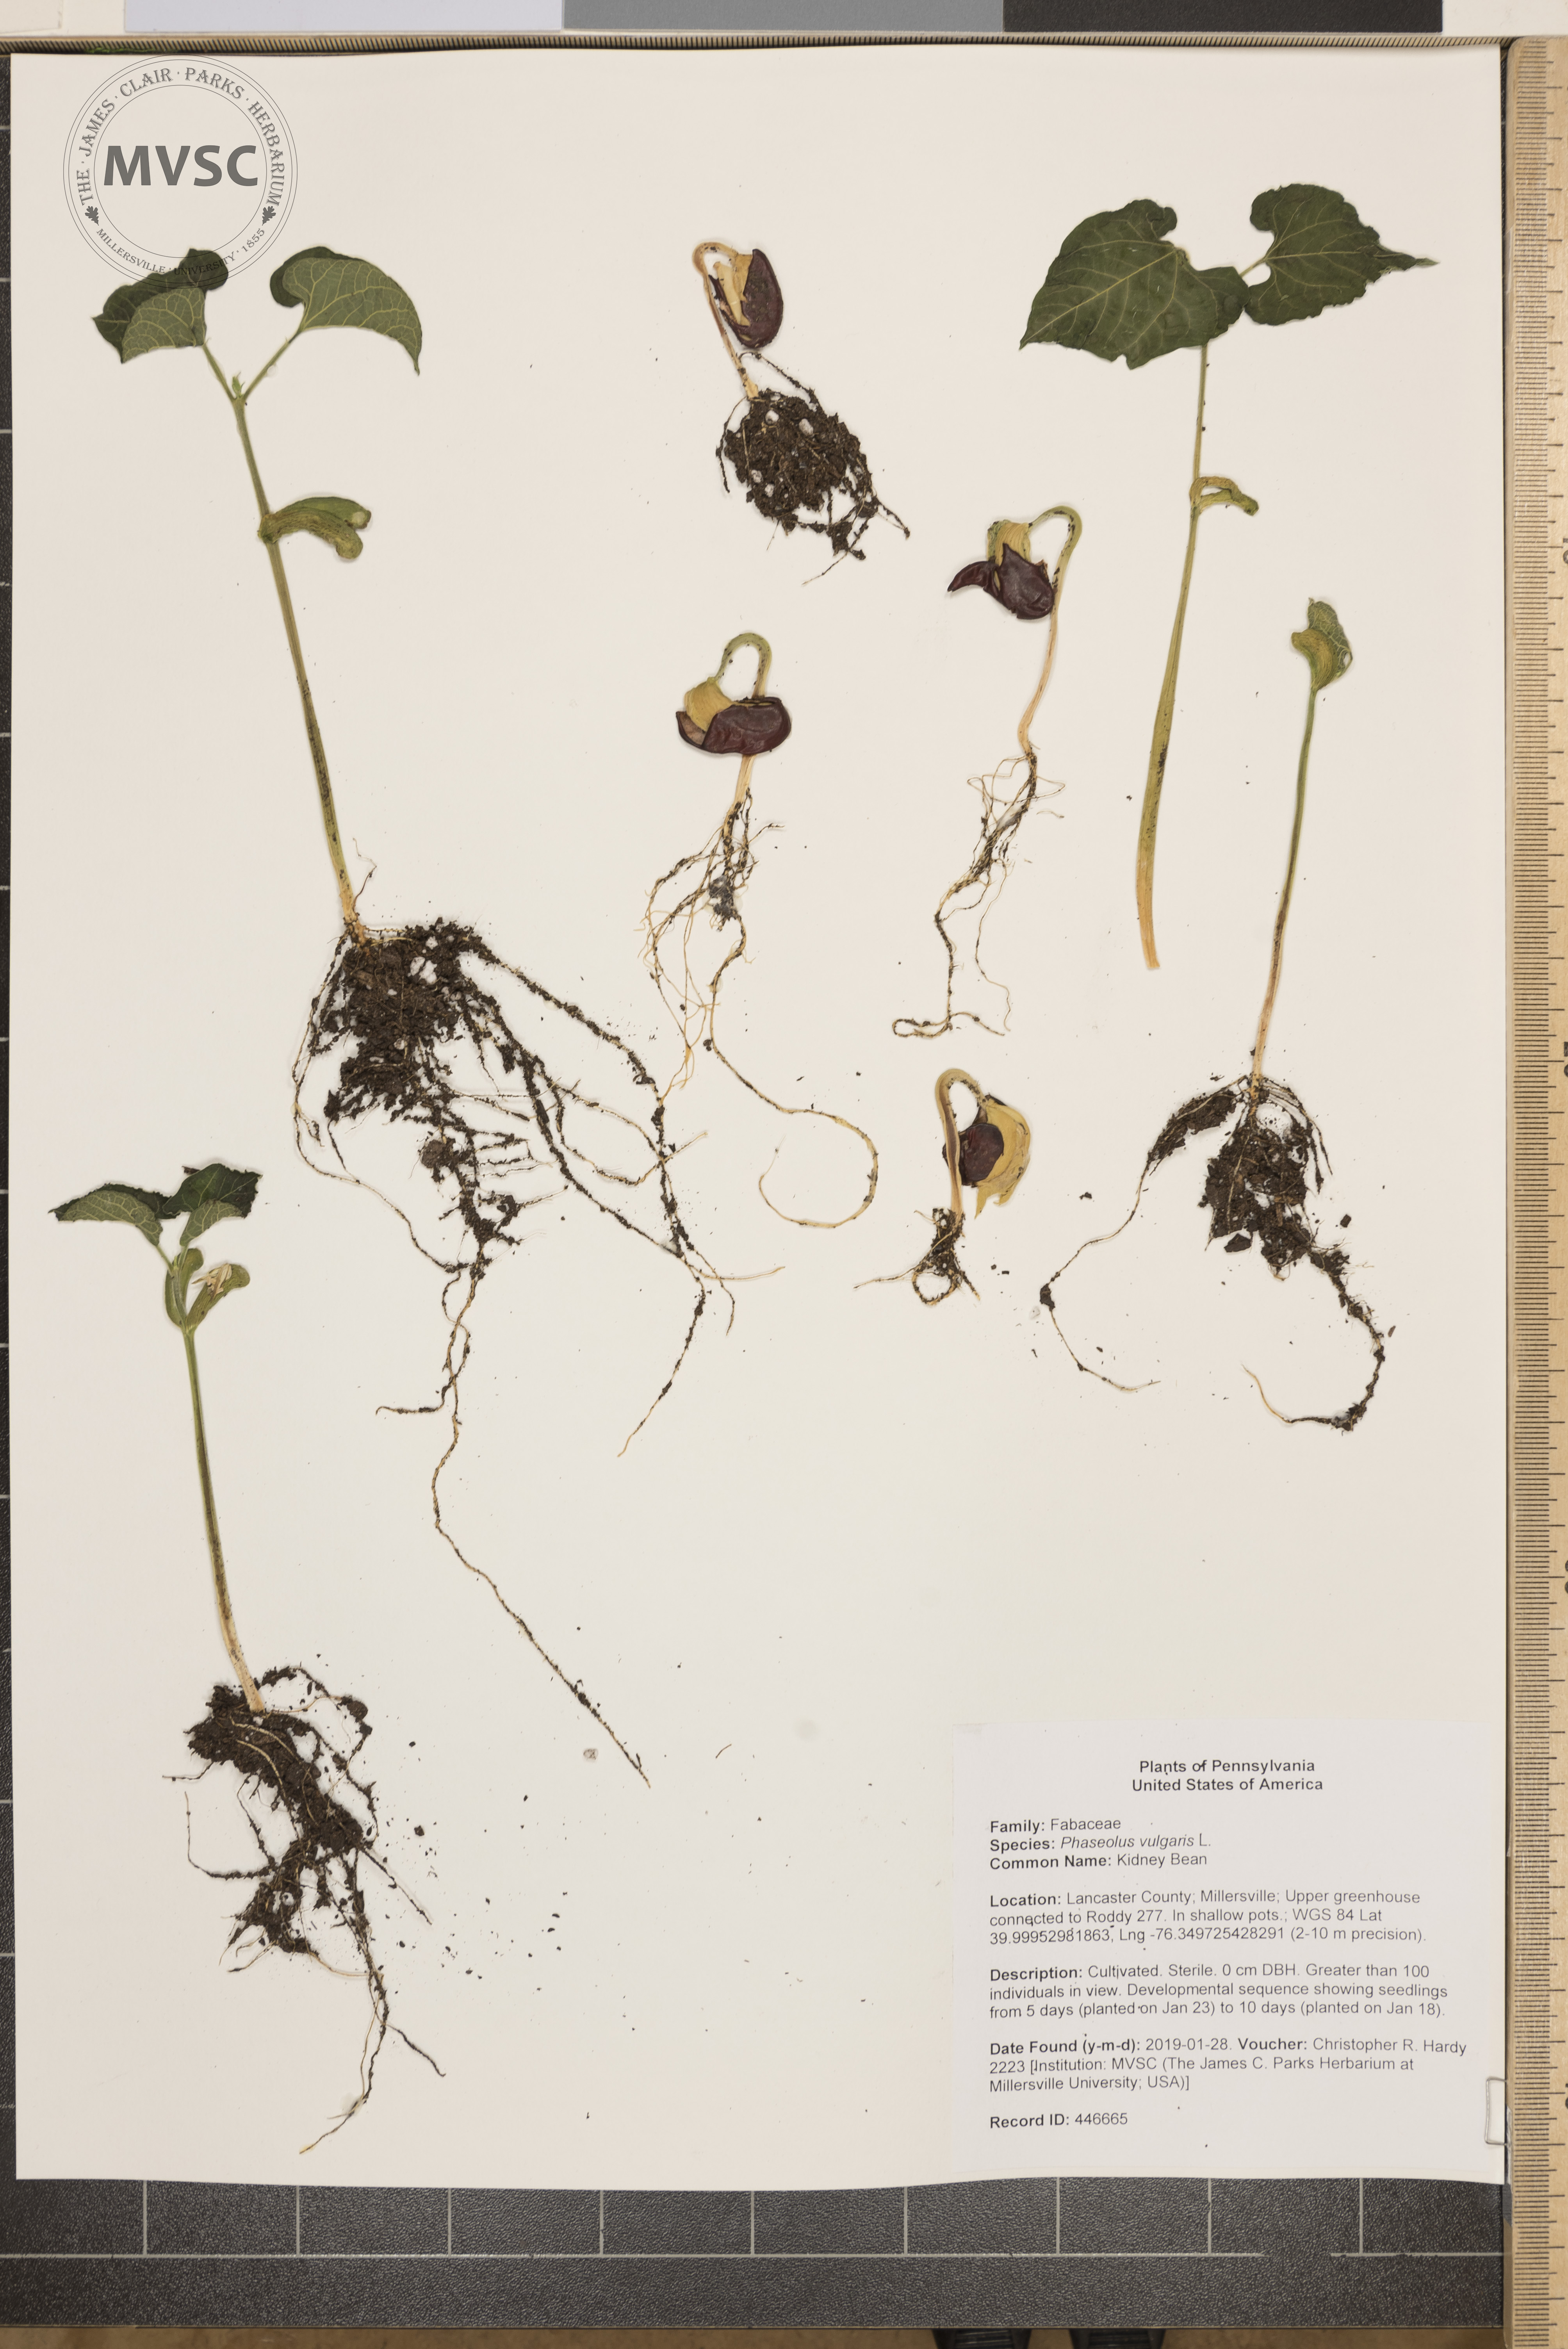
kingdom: Plantae
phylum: Tracheophyta
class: Magnoliopsida
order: Fabales
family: Fabaceae
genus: Phaseolus
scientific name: Phaseolus vulgaris
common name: Kidney Bean
